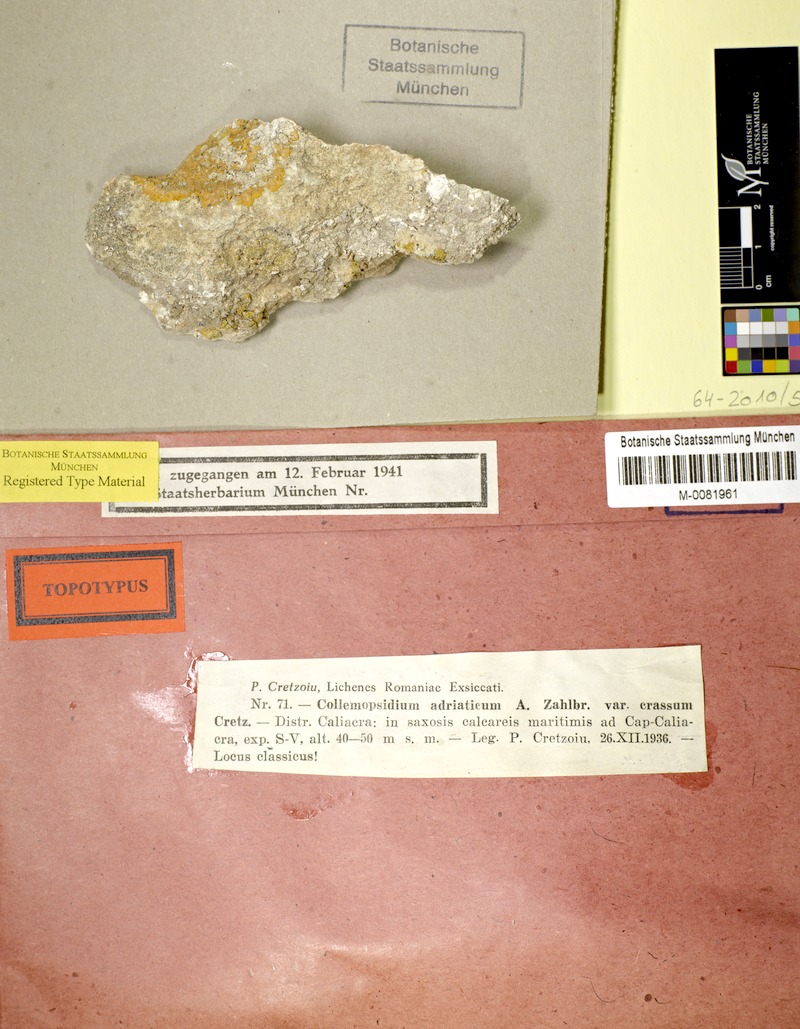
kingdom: Fungi
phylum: Ascomycota
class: Dothideomycetes
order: Collemopsidiales
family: Xanthopyreniaceae
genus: Collemopsidium
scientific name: Collemopsidium adriaticum
